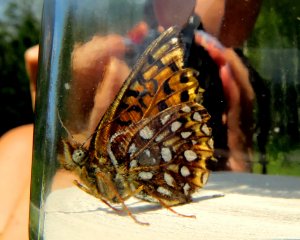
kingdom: Animalia
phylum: Arthropoda
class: Insecta
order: Lepidoptera
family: Nymphalidae
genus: Speyeria
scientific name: Speyeria cybele
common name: Great Spangled Fritillary
